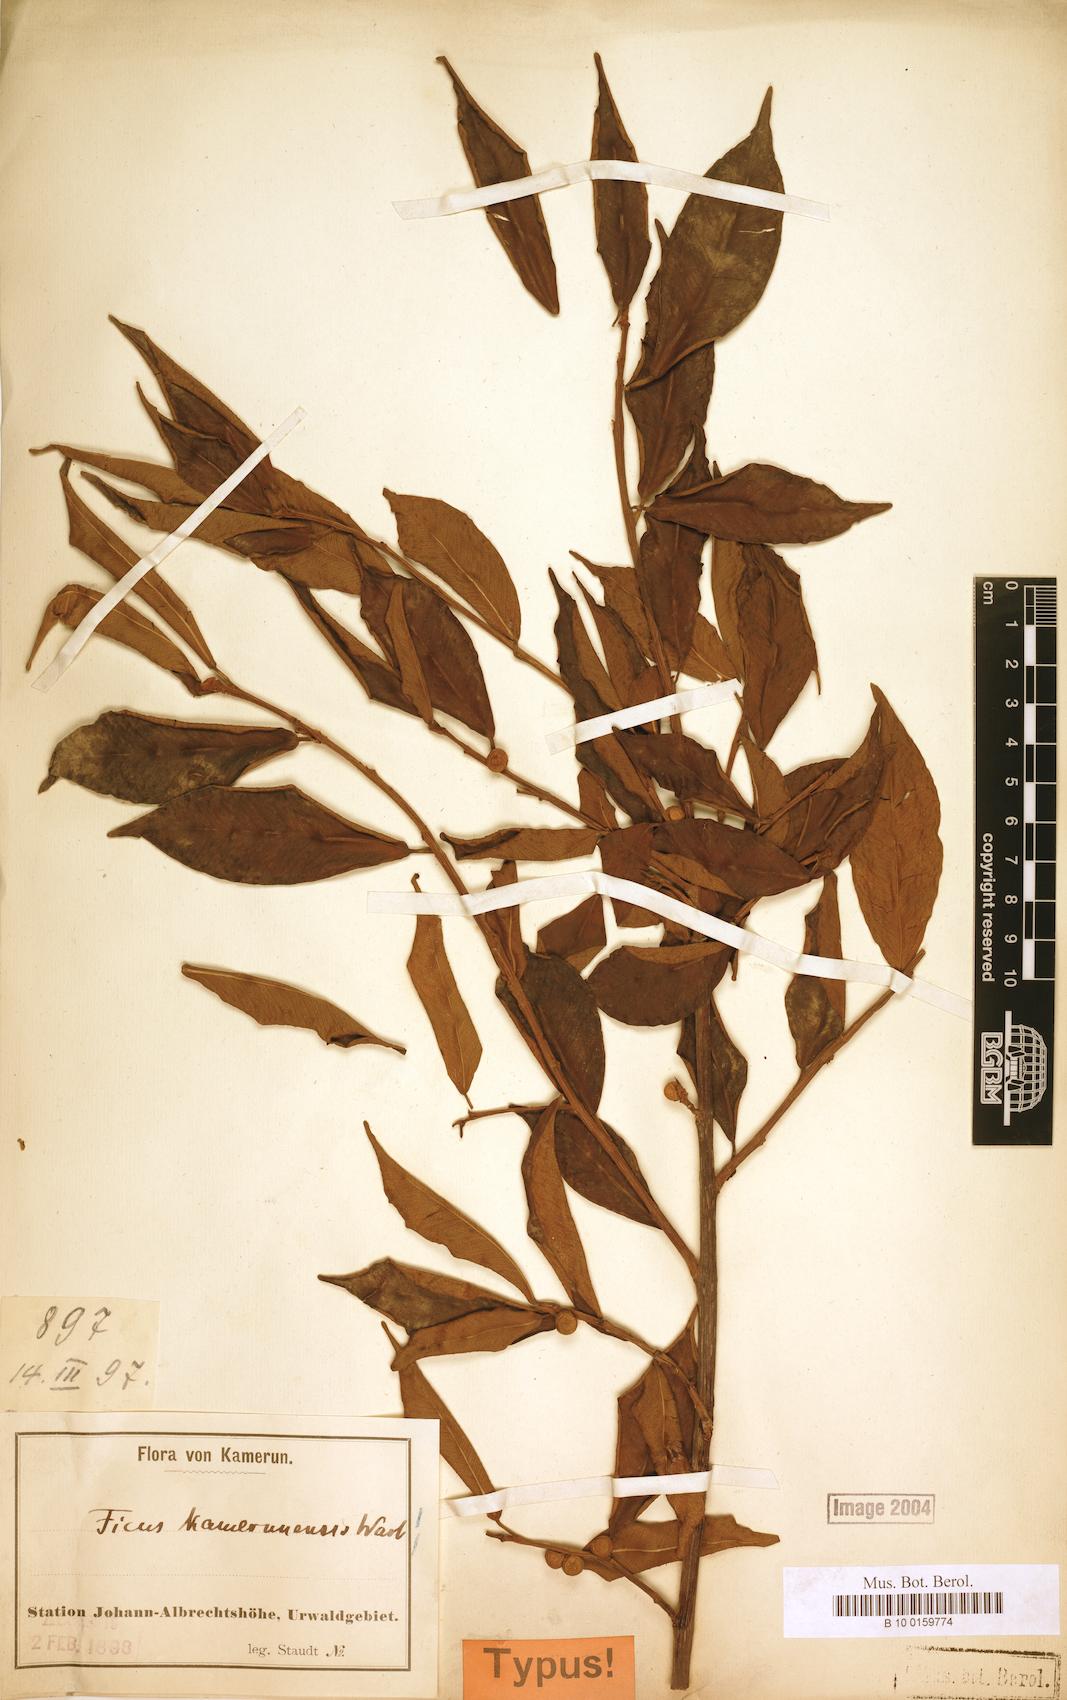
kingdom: Plantae
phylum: Tracheophyta
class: Magnoliopsida
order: Rosales
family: Moraceae
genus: Ficus
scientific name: Ficus kamerunensis
